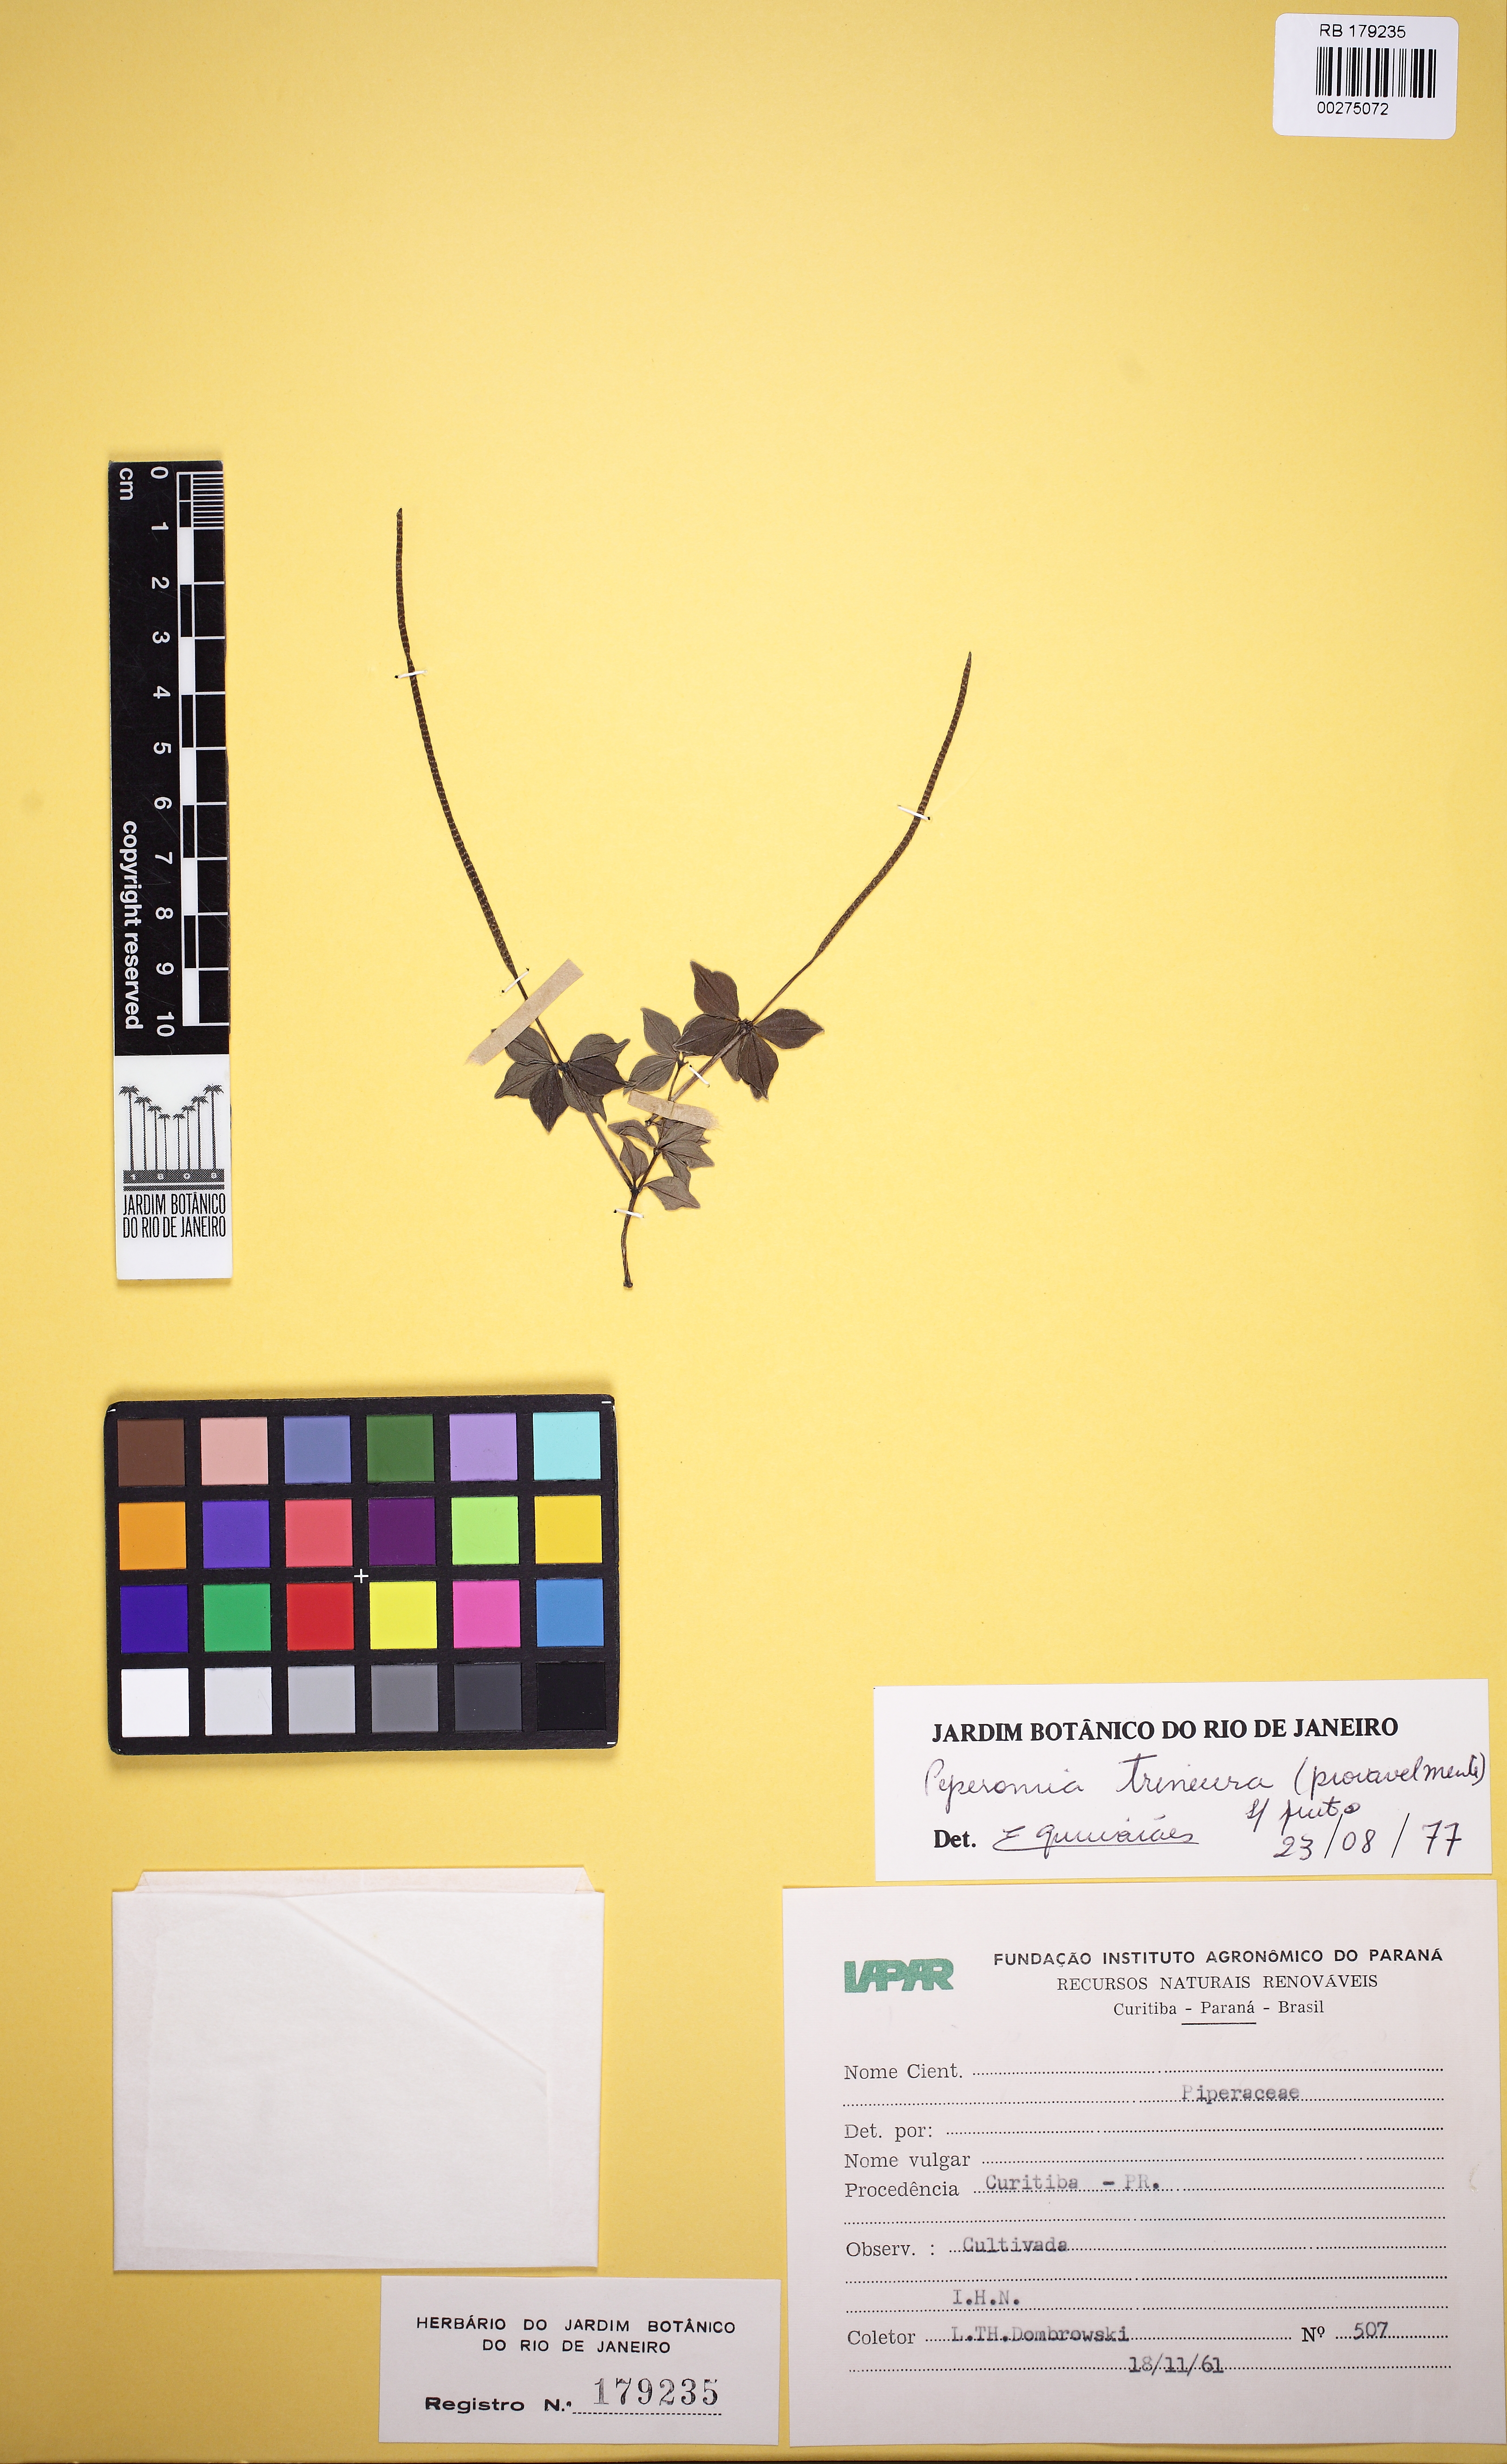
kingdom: Plantae
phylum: Tracheophyta
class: Magnoliopsida
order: Piperales
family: Piperaceae
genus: Peperomia
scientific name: Peperomia trineura
